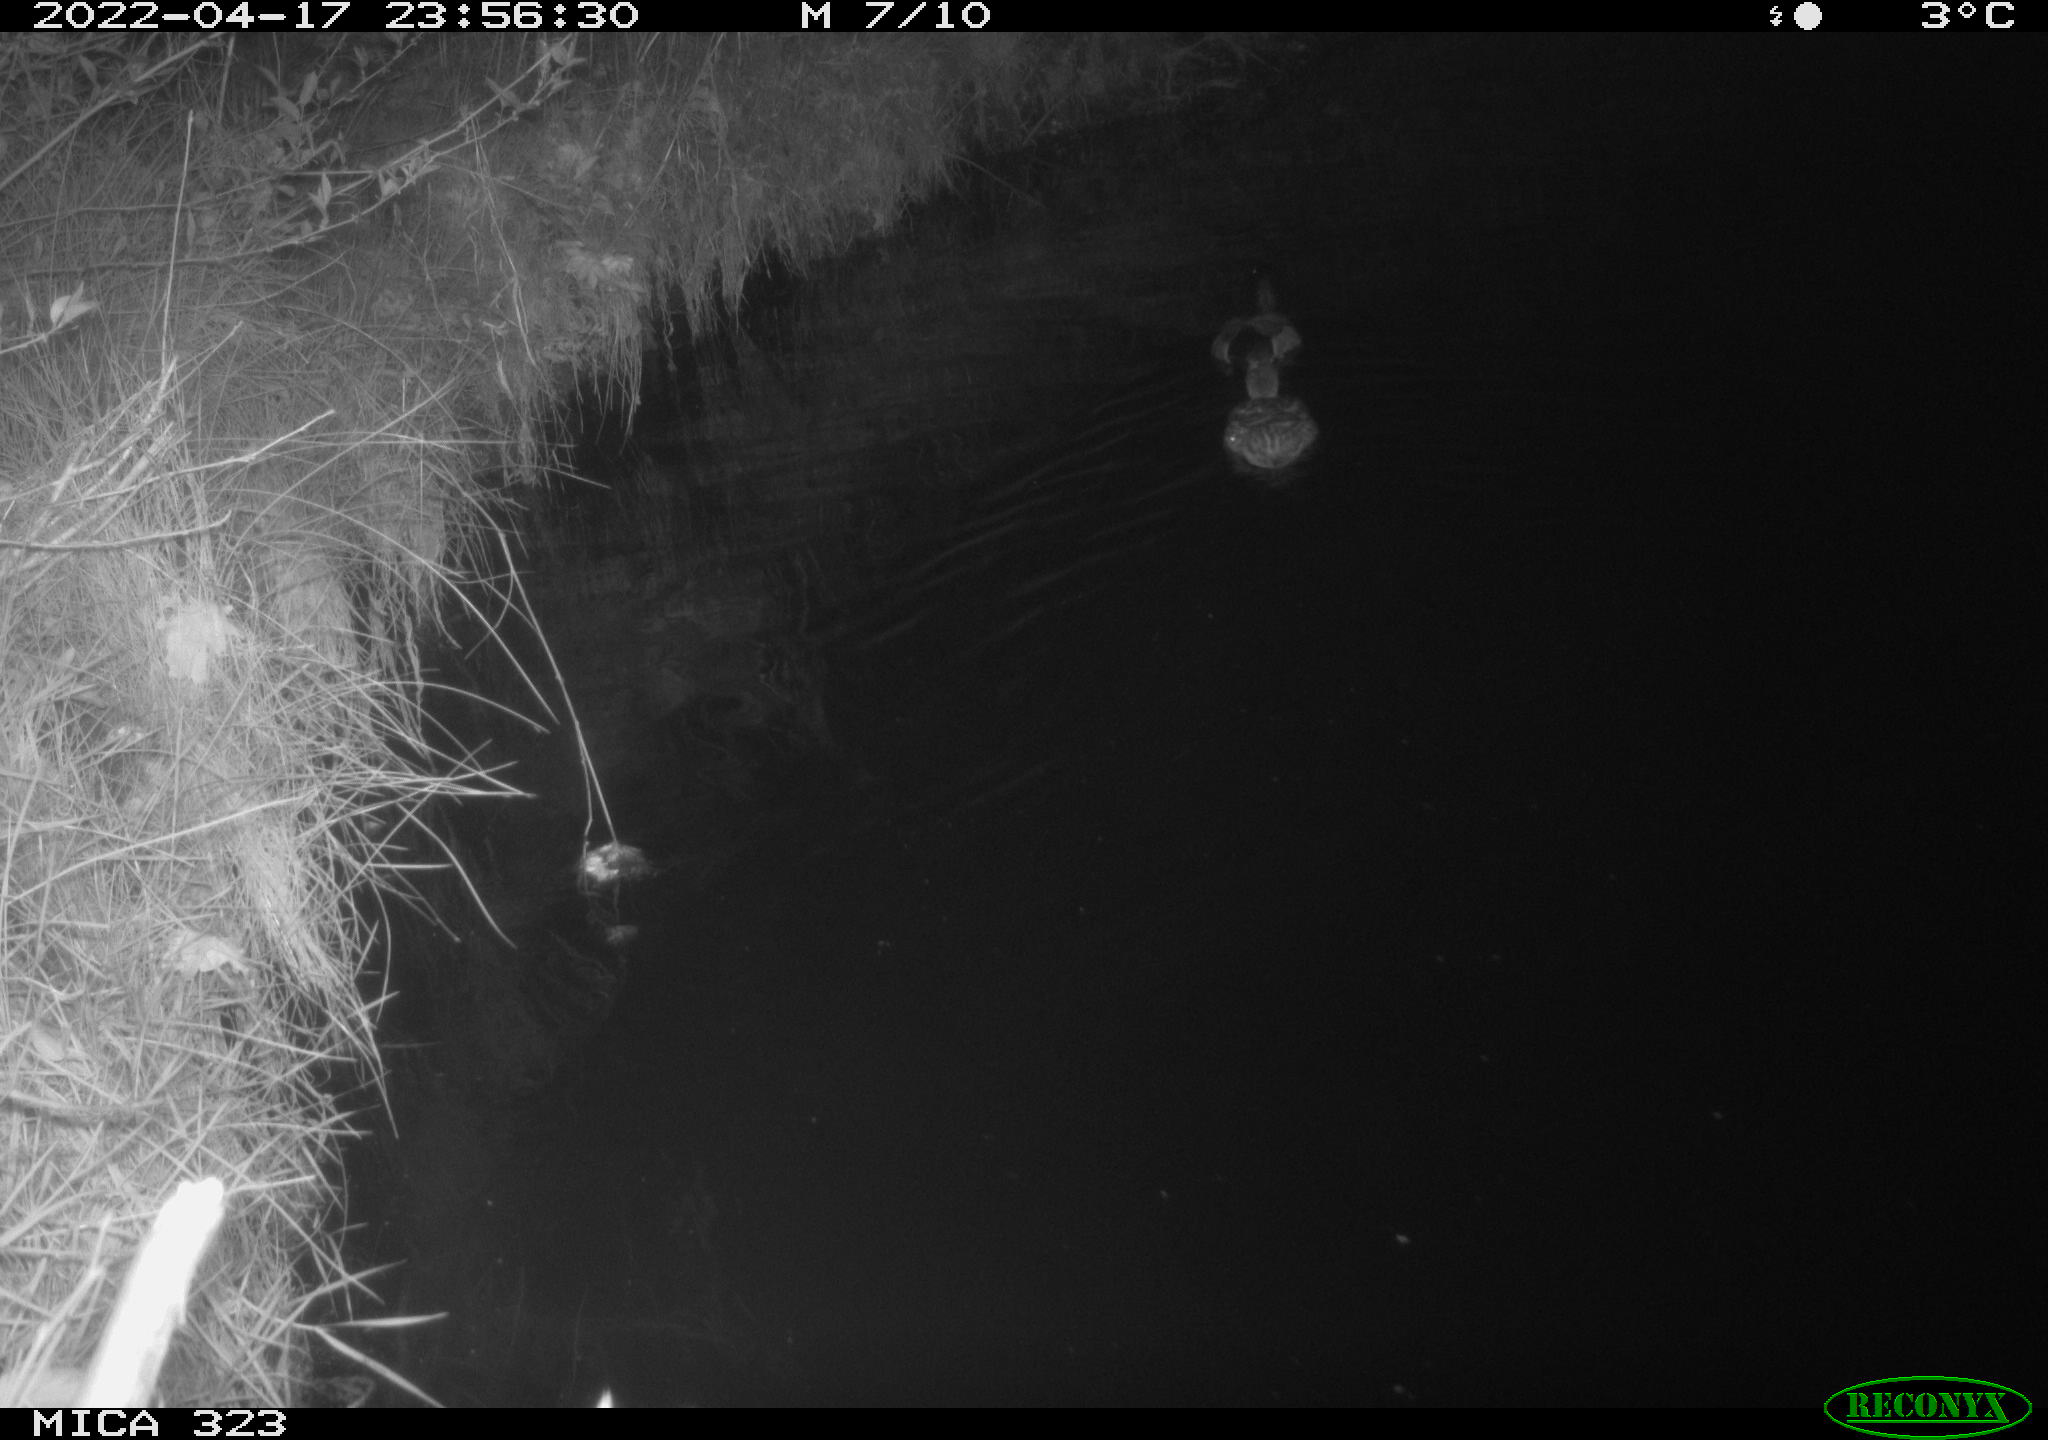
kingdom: Animalia
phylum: Chordata
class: Aves
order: Anseriformes
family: Anatidae
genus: Anas
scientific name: Anas
